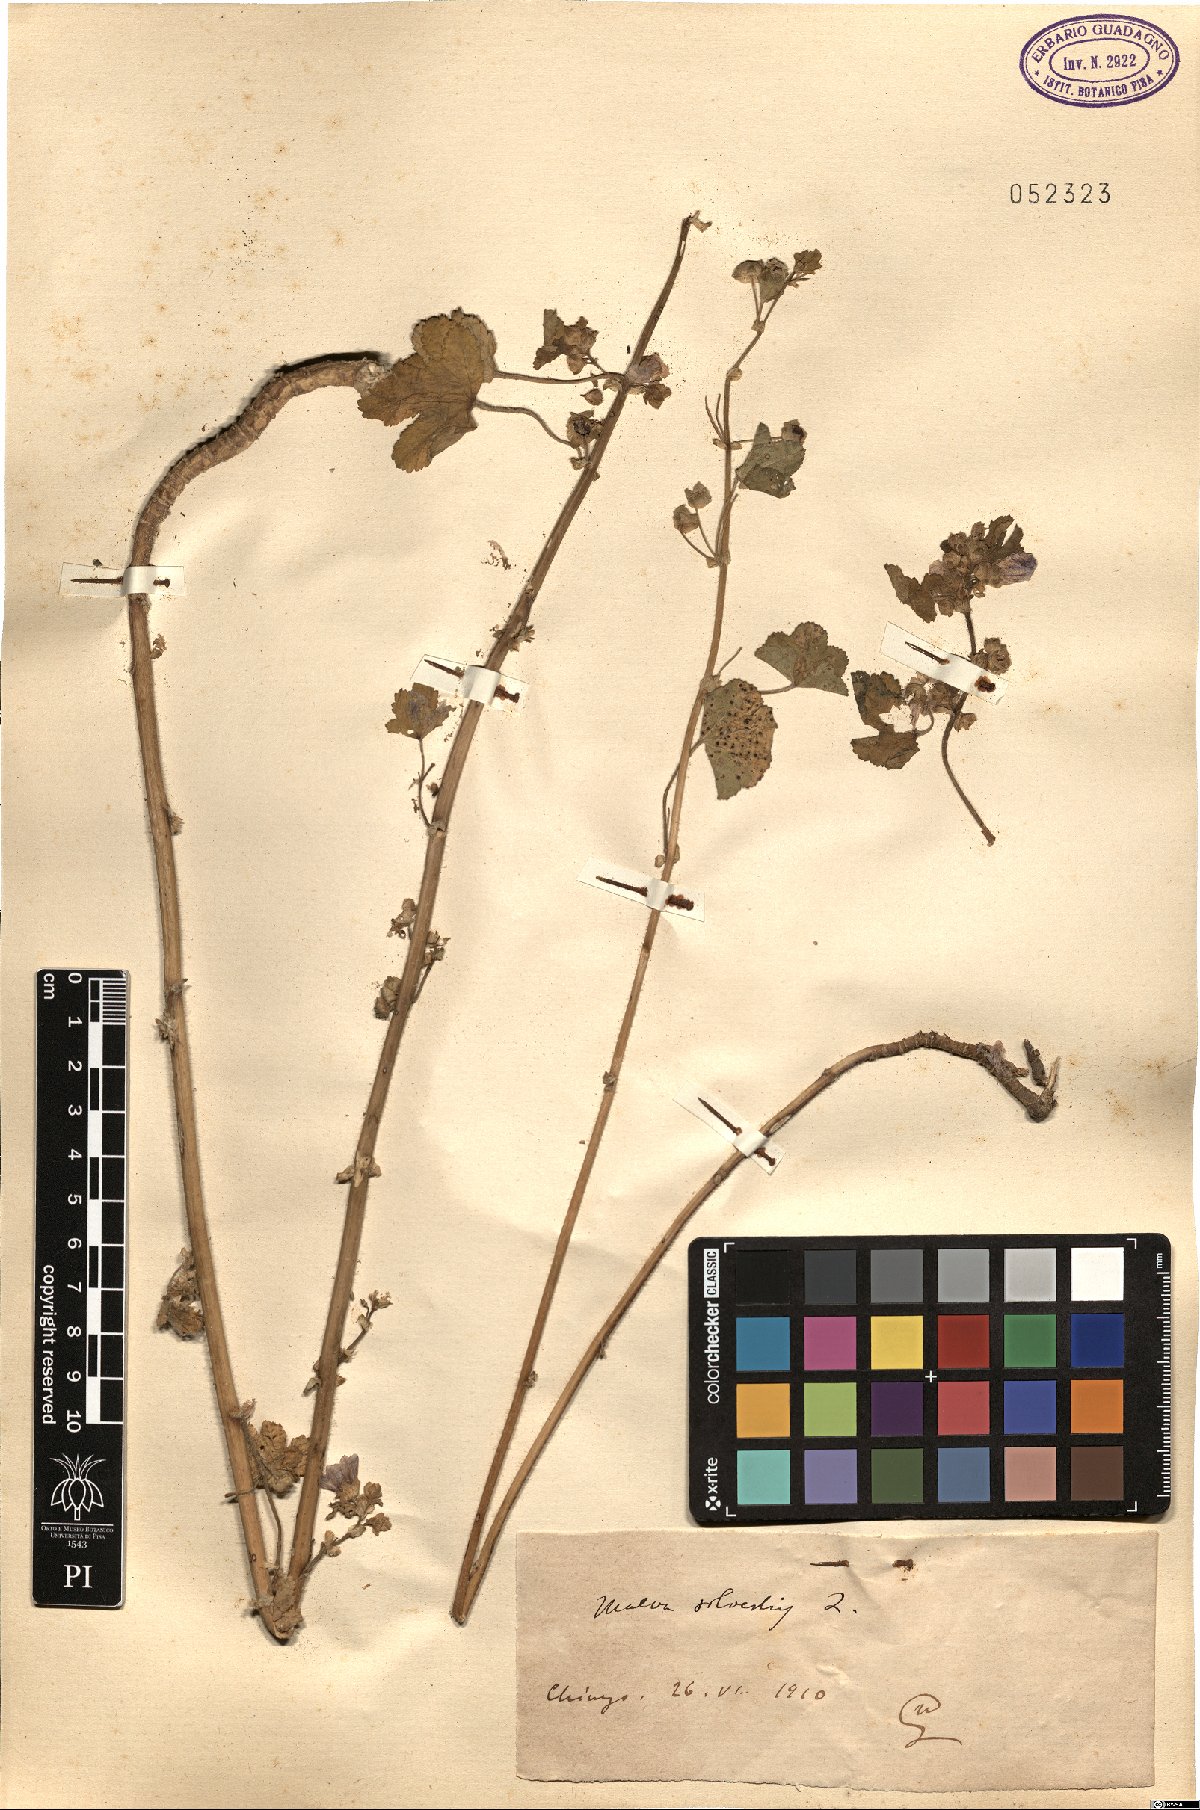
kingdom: Plantae
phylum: Tracheophyta
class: Magnoliopsida
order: Malvales
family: Malvaceae
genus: Malva
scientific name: Malva sylvestris
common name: Common mallow
